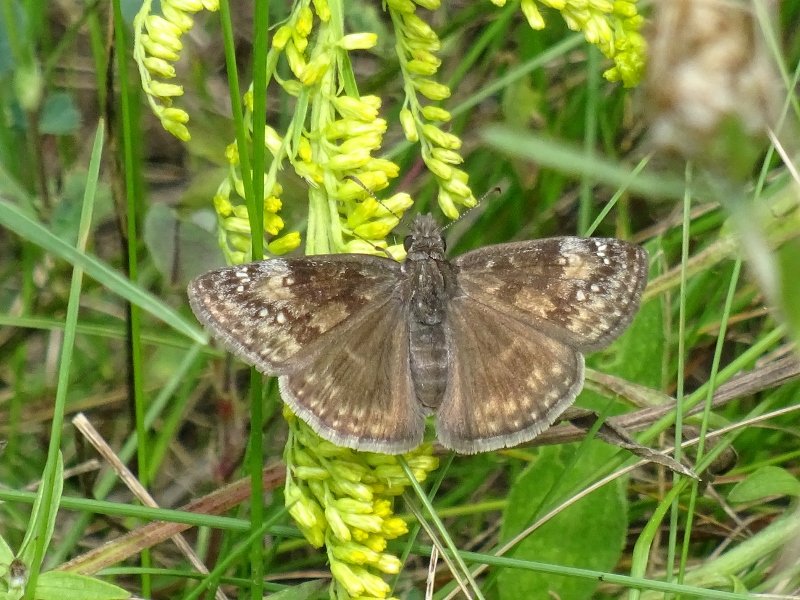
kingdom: Animalia
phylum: Arthropoda
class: Insecta
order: Lepidoptera
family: Hesperiidae
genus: Gesta
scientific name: Gesta
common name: Wild Indigo Duskywing
